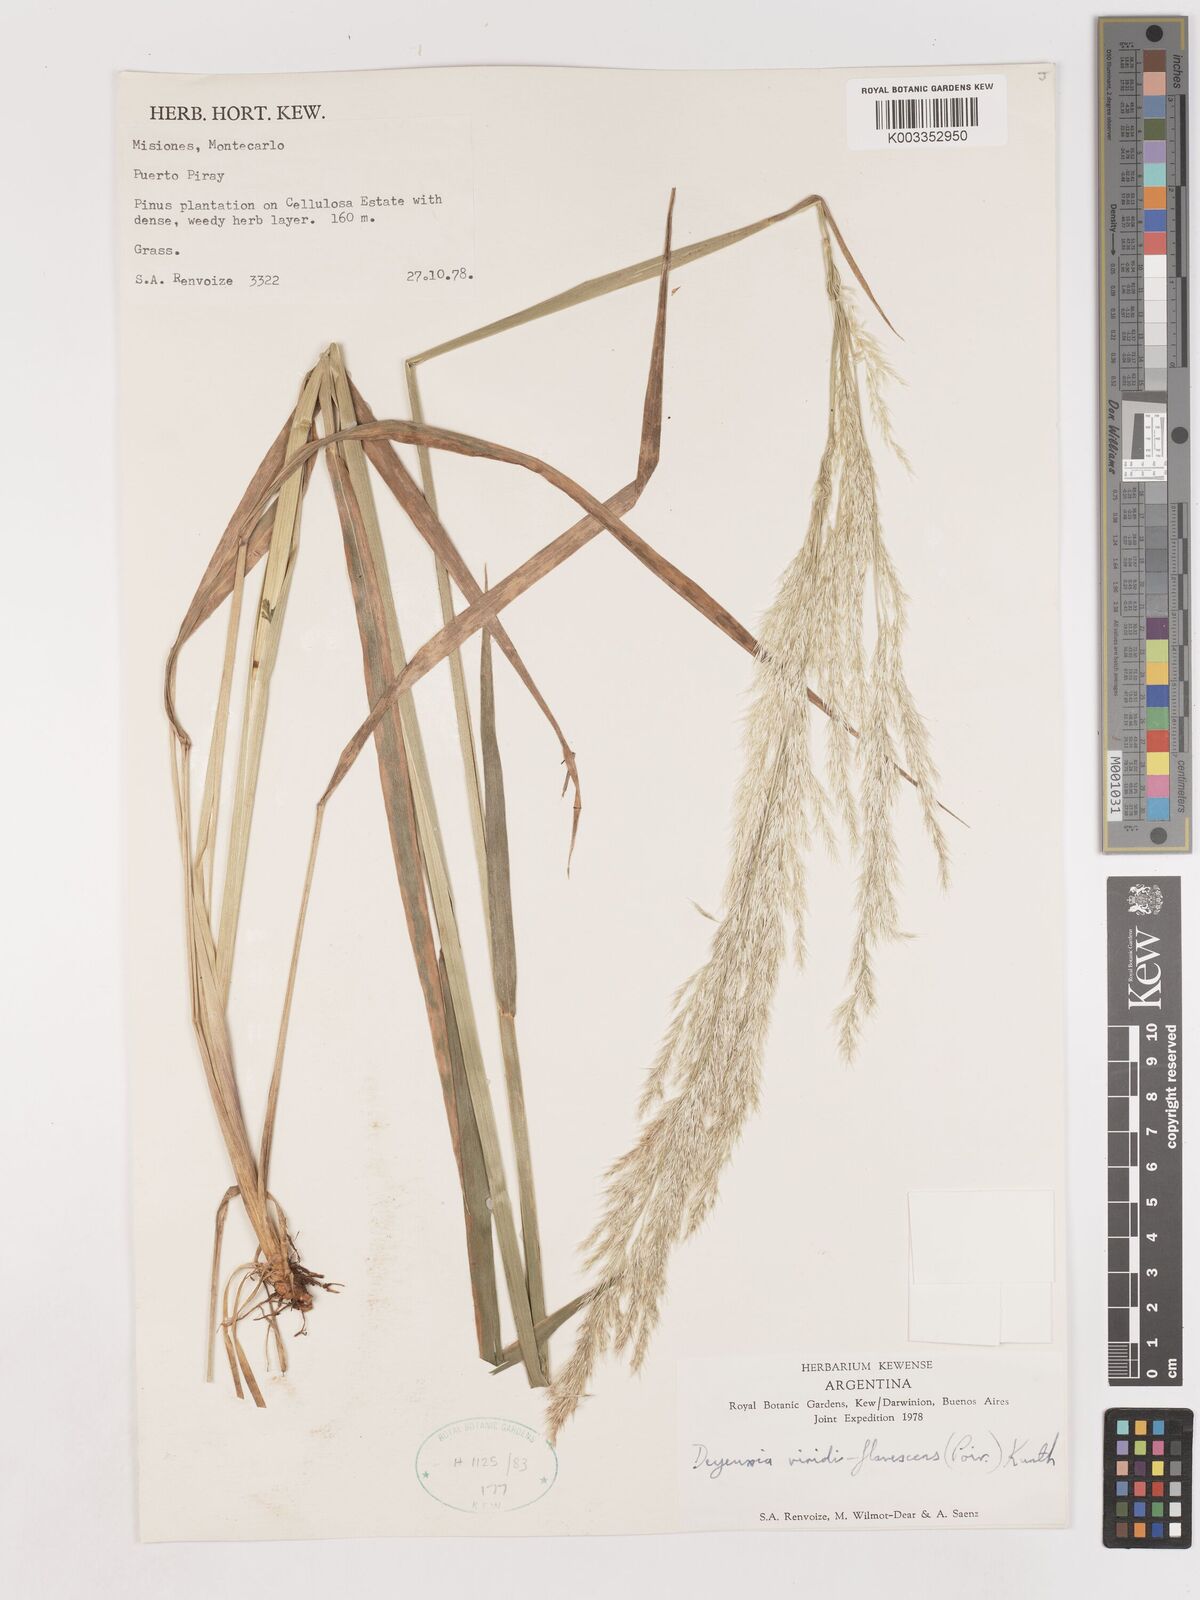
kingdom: Plantae
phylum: Tracheophyta
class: Liliopsida
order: Poales
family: Poaceae
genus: Cinnagrostis
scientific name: Cinnagrostis viridiflavescens
